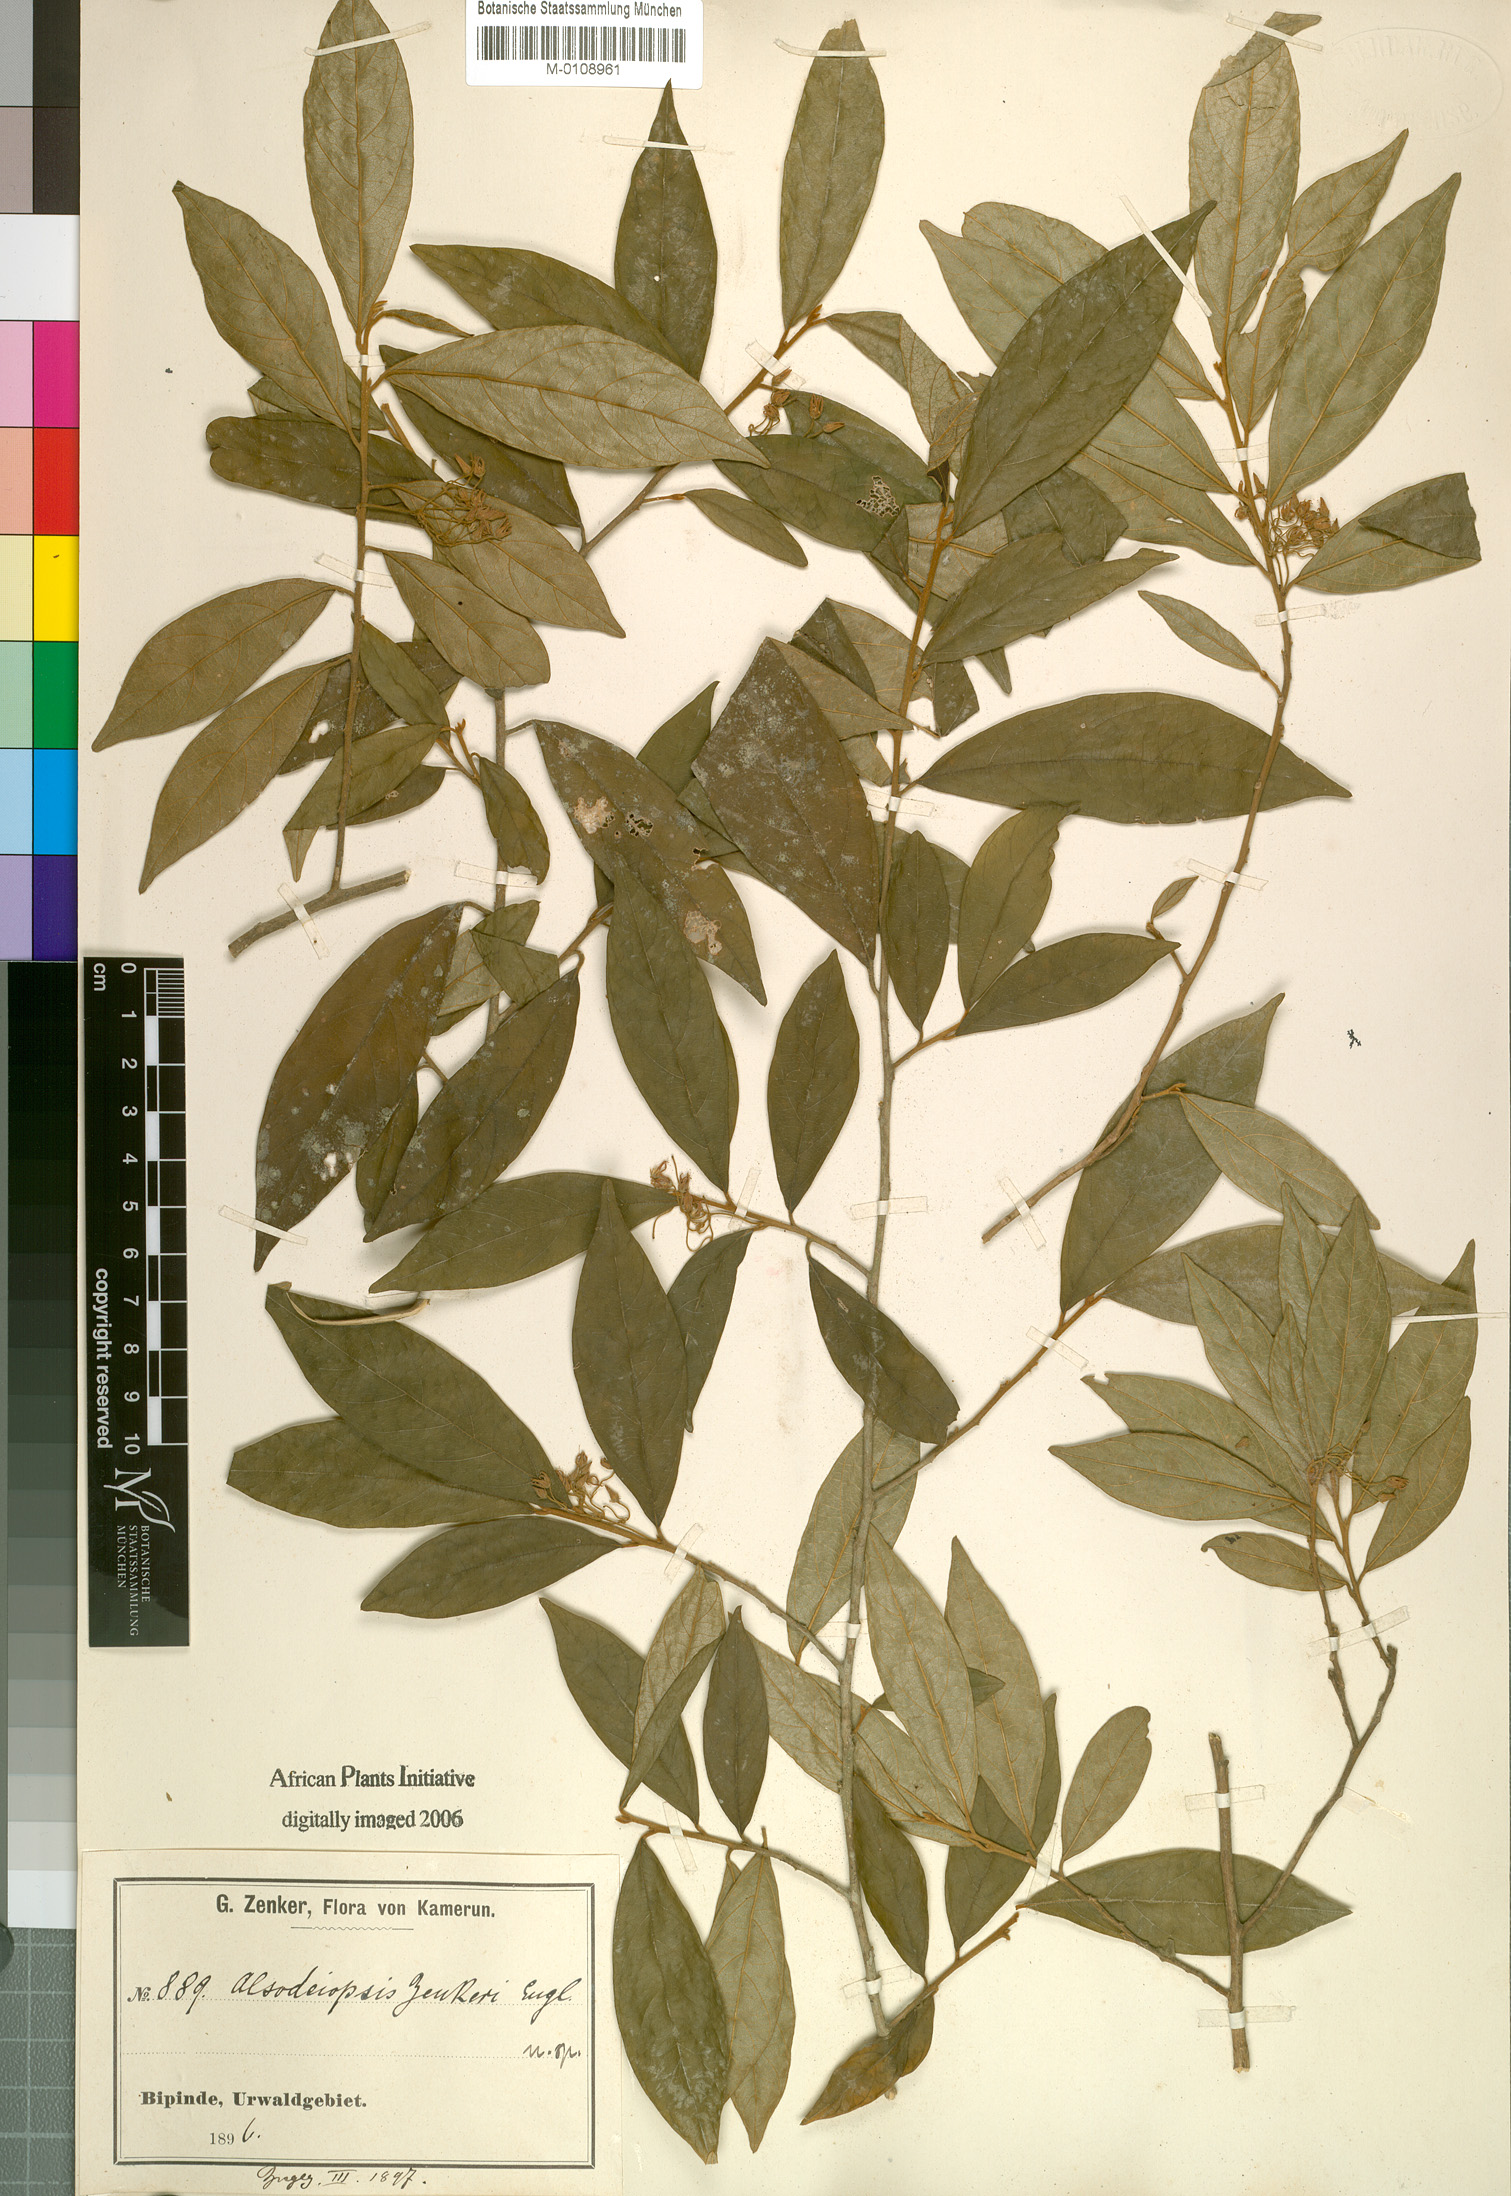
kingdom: Plantae
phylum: Tracheophyta
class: Magnoliopsida
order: Icacinales
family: Icacinaceae
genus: Alsodeiopsis
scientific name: Alsodeiopsis zenkeri
